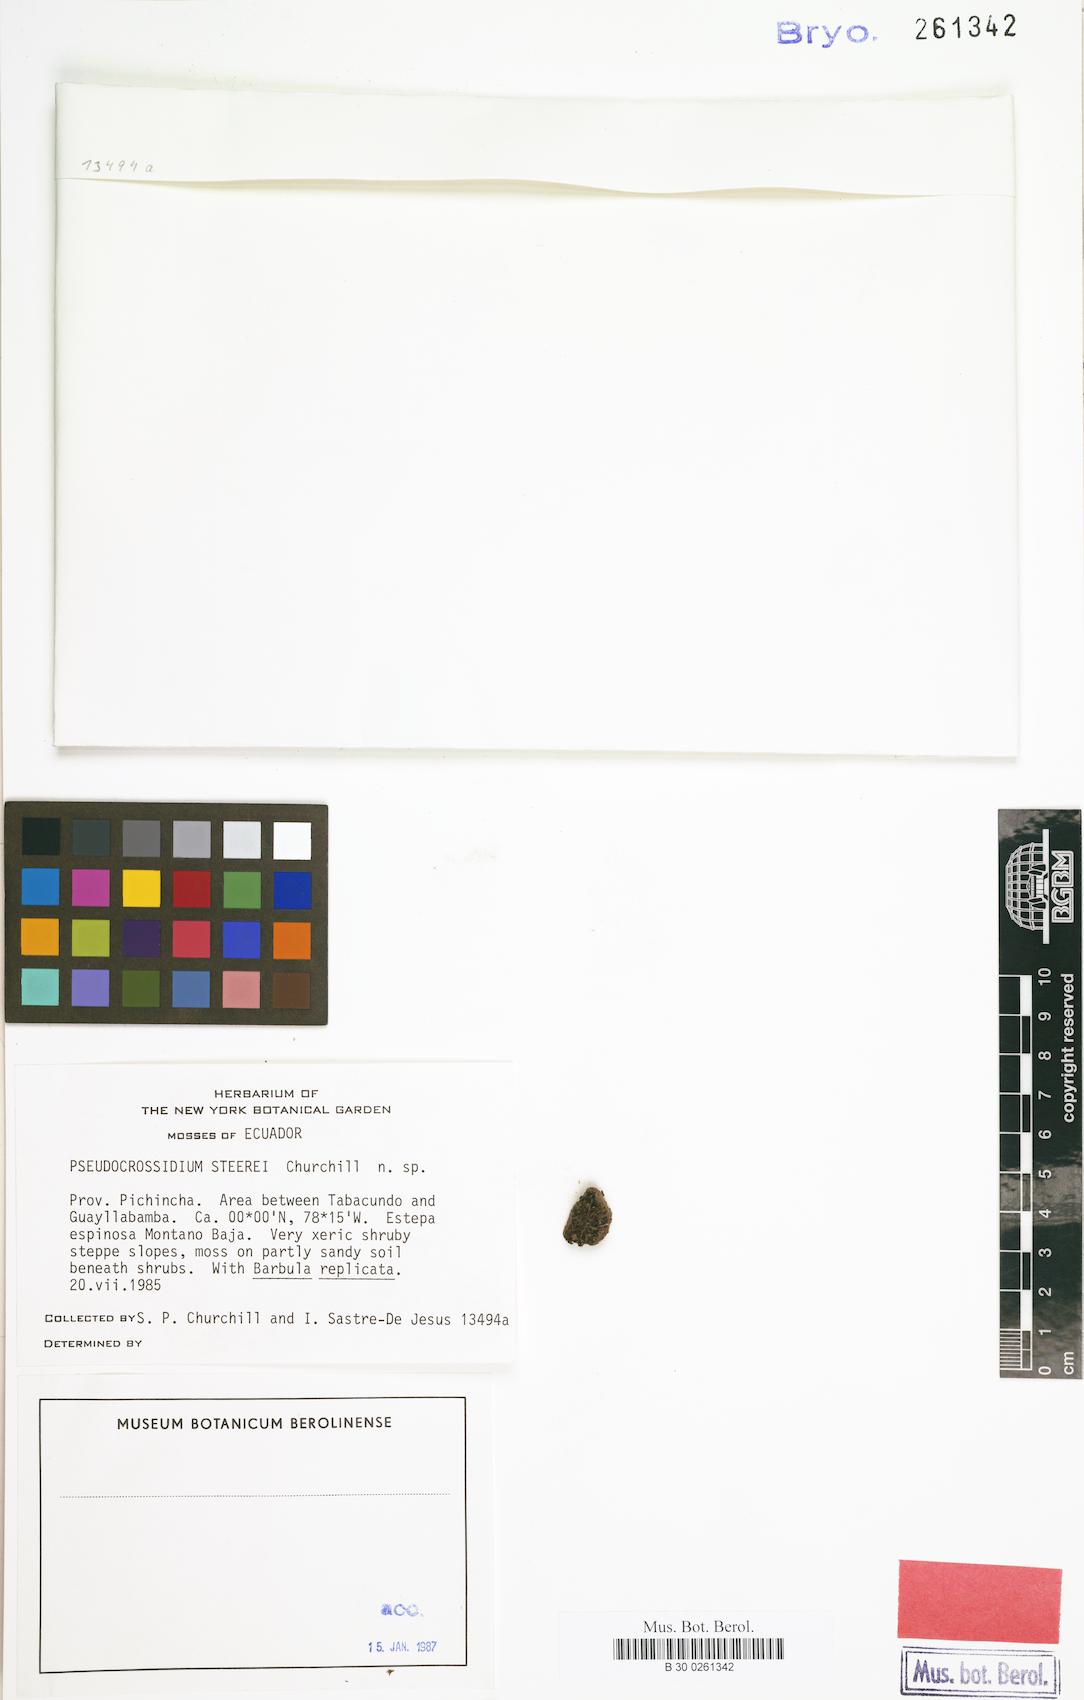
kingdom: Plantae
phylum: Bryophyta
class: Bryopsida
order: Pottiales
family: Pottiaceae
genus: Gertrudiella
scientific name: Gertrudiella granulosa
